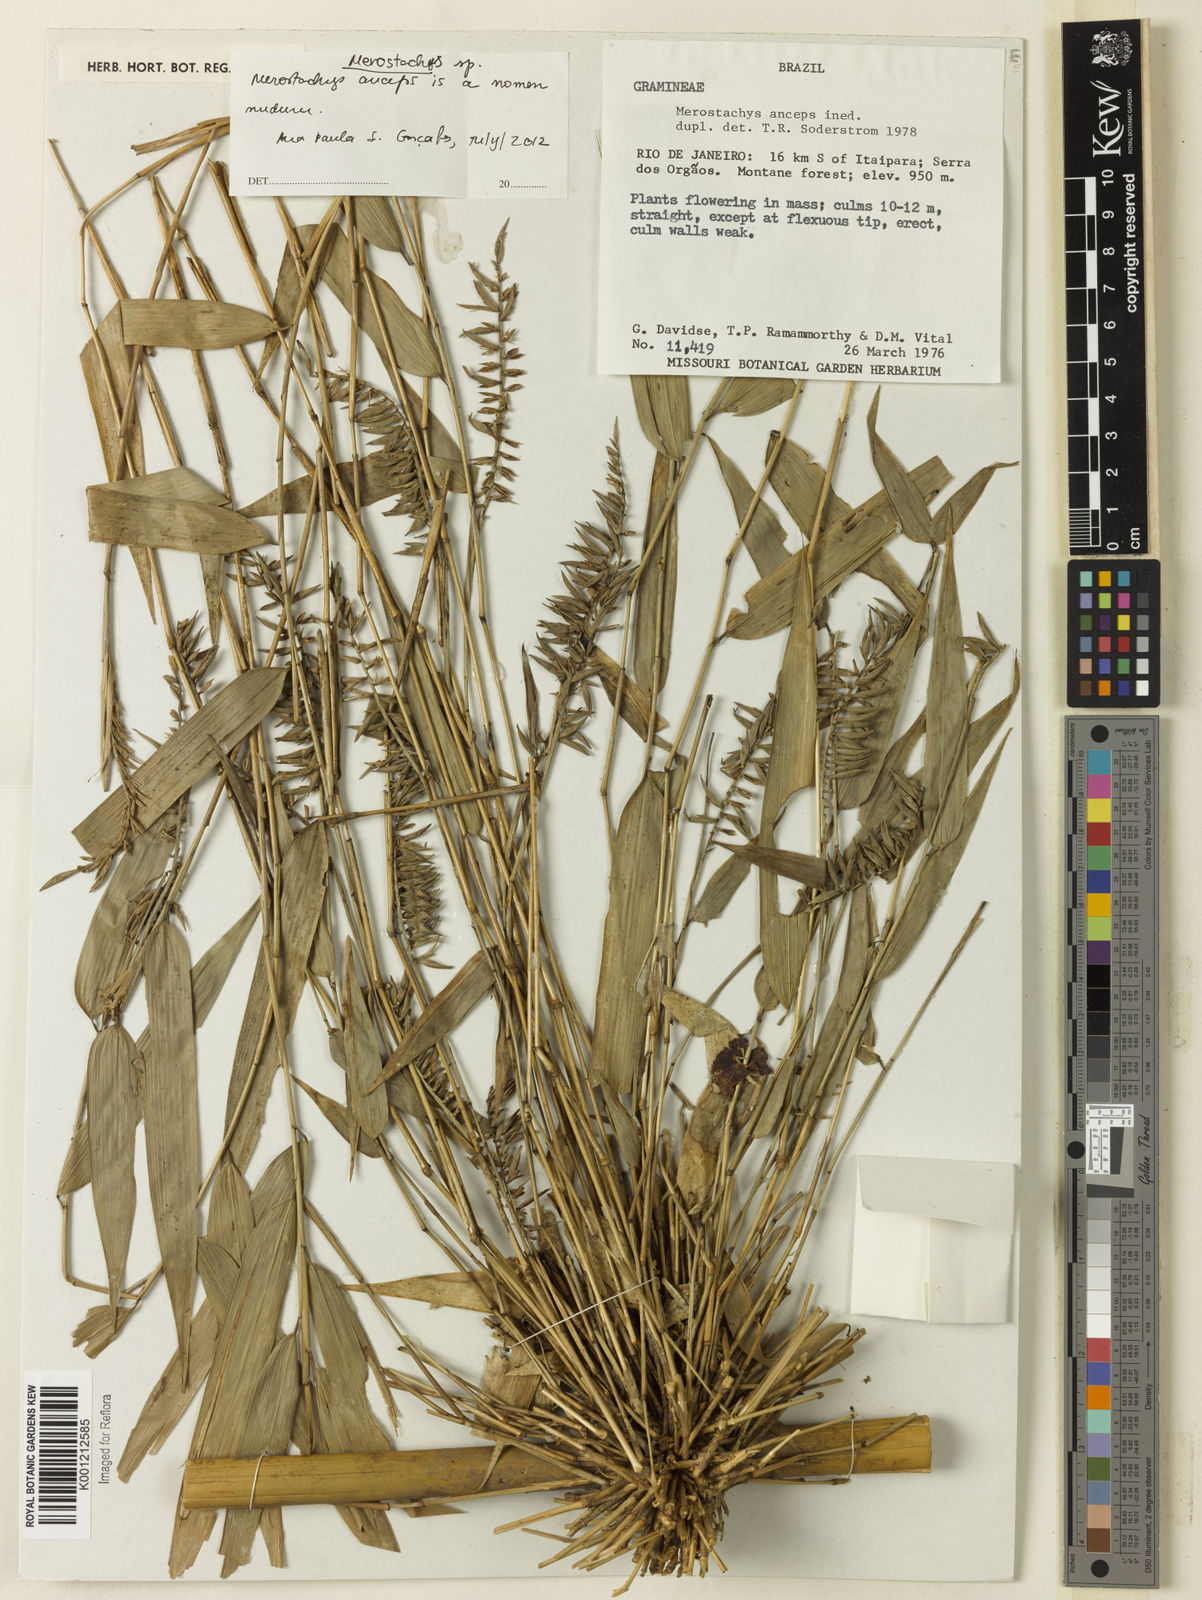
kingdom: Plantae
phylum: Tracheophyta
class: Liliopsida
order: Poales
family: Poaceae
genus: Merostachys
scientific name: Merostachys
